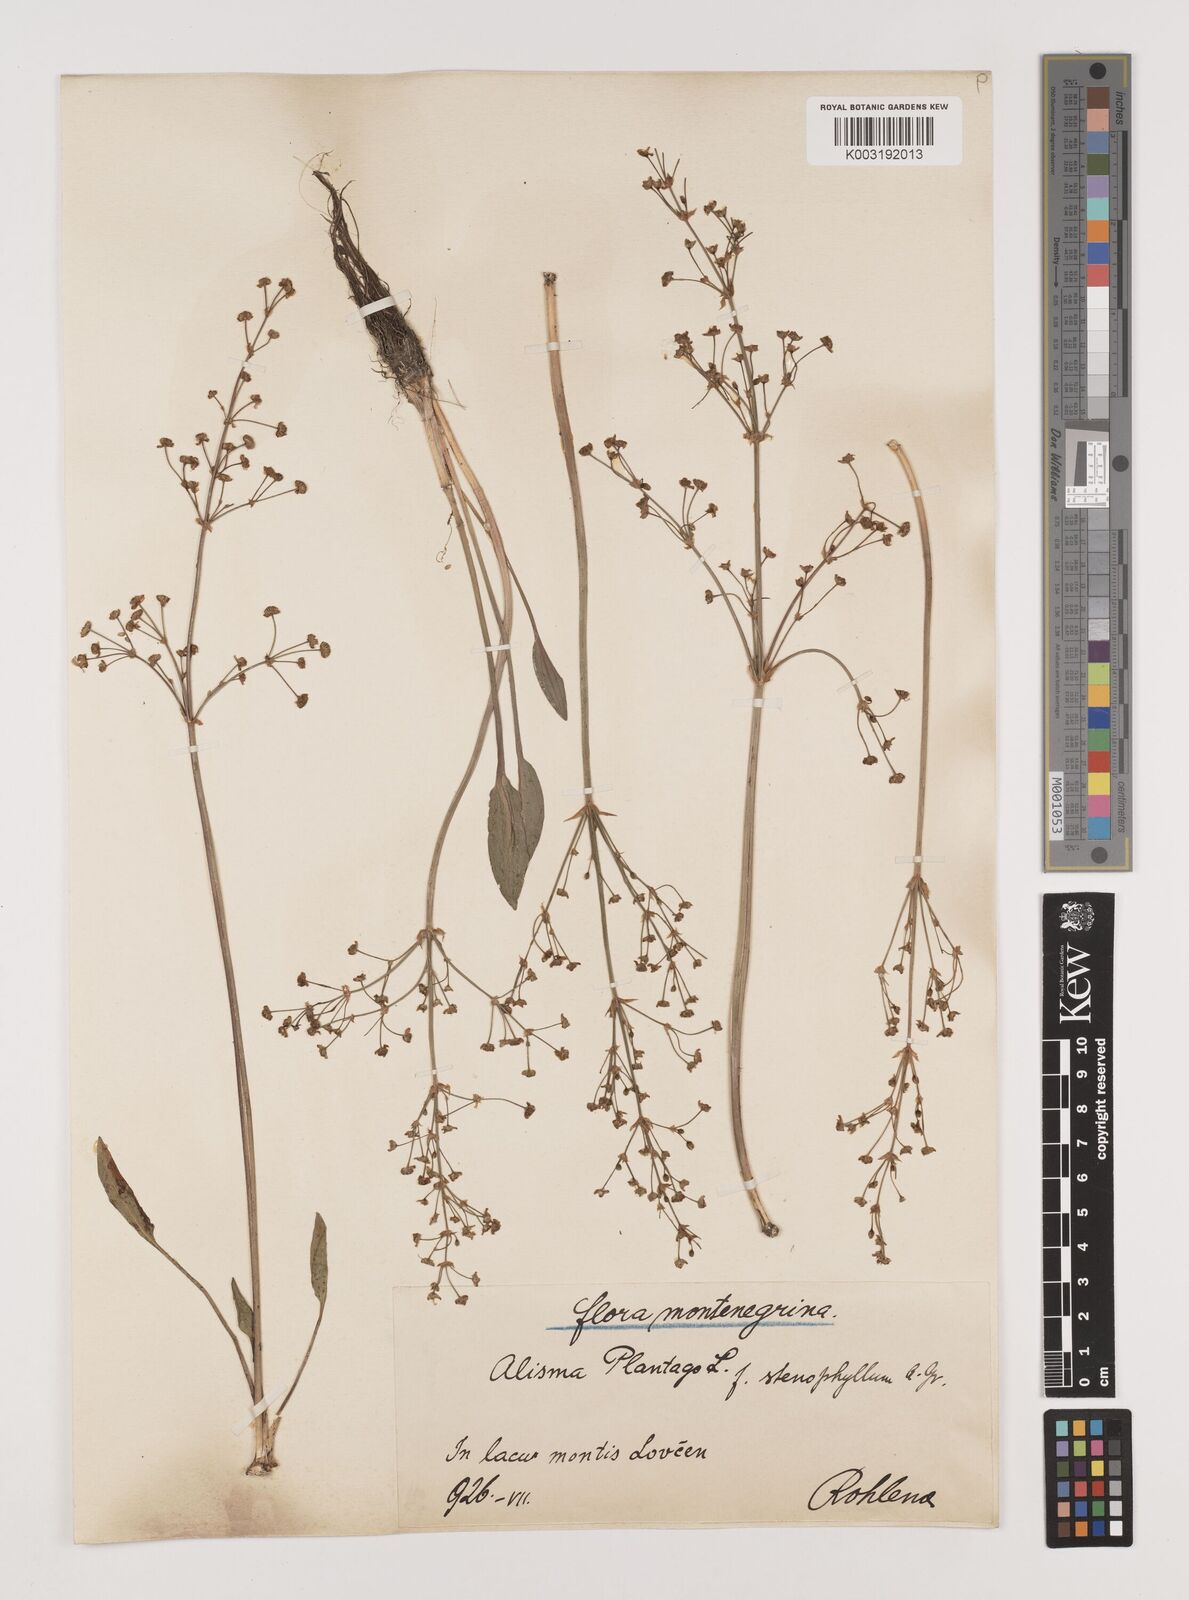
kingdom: Plantae
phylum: Tracheophyta
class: Liliopsida
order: Alismatales
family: Alismataceae
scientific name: Alismataceae
